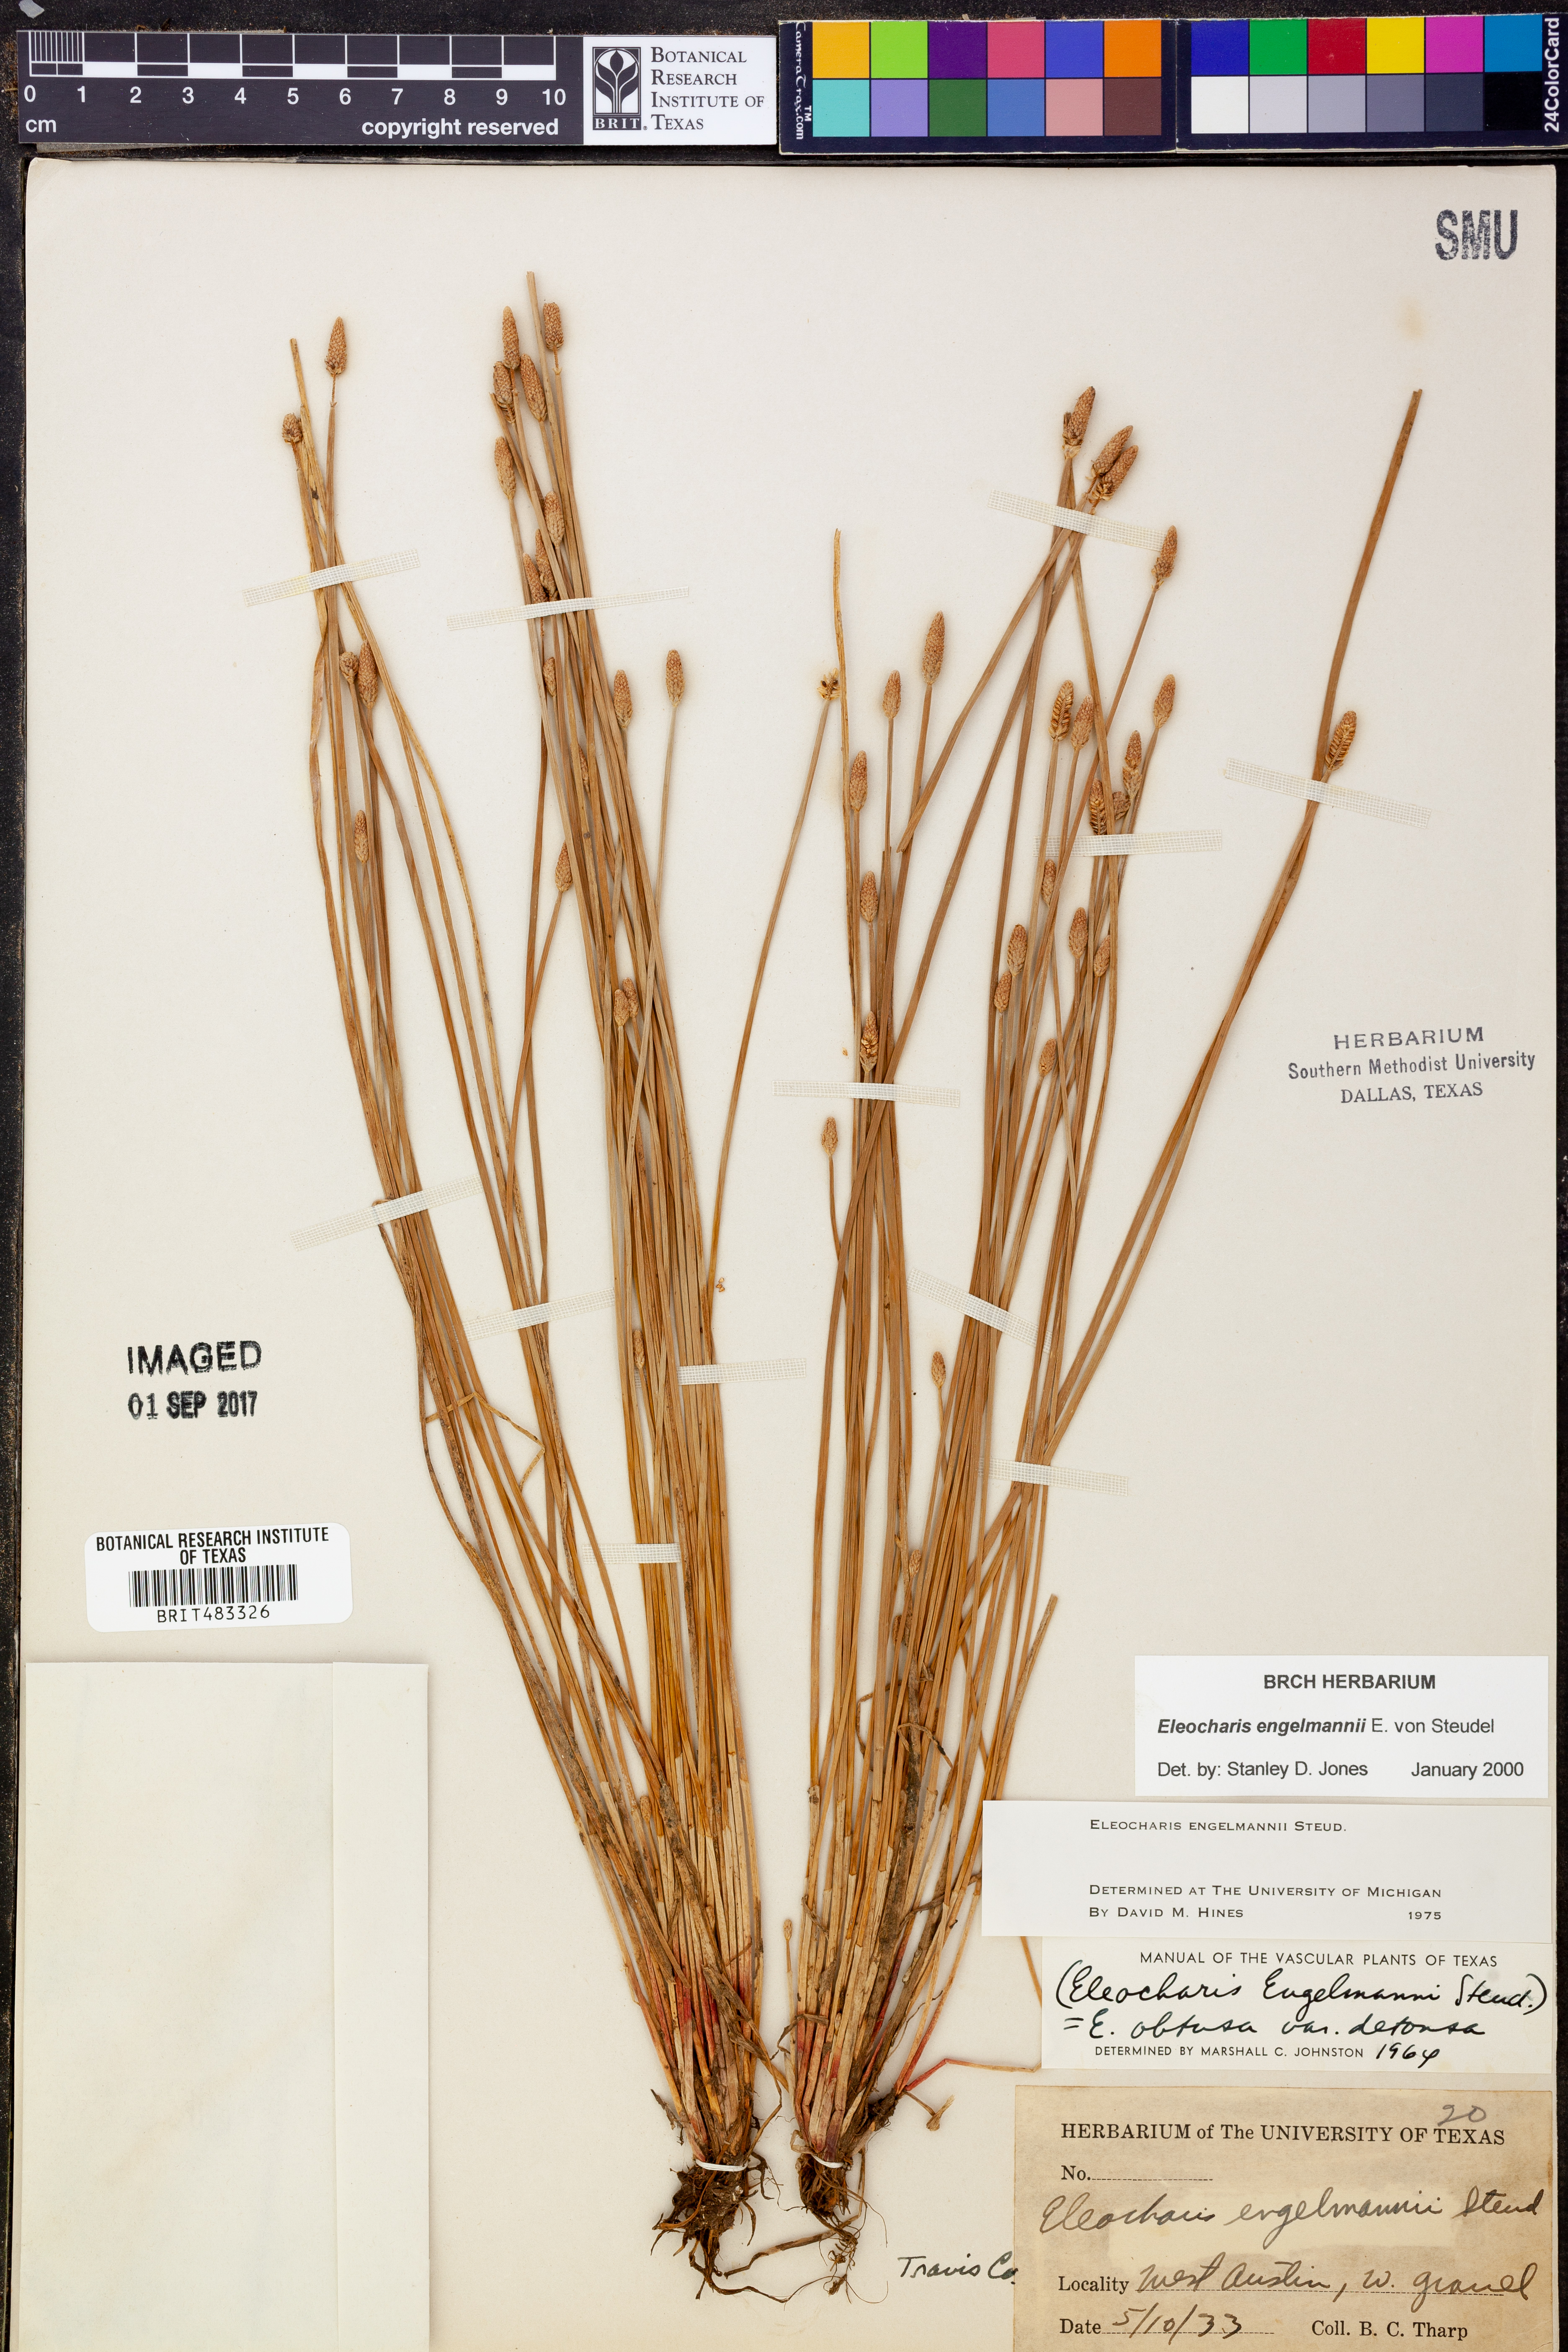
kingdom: Plantae
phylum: Tracheophyta
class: Liliopsida
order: Poales
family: Cyperaceae
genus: Eleocharis
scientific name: Eleocharis engelmannii
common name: Engelmann's spikerush
